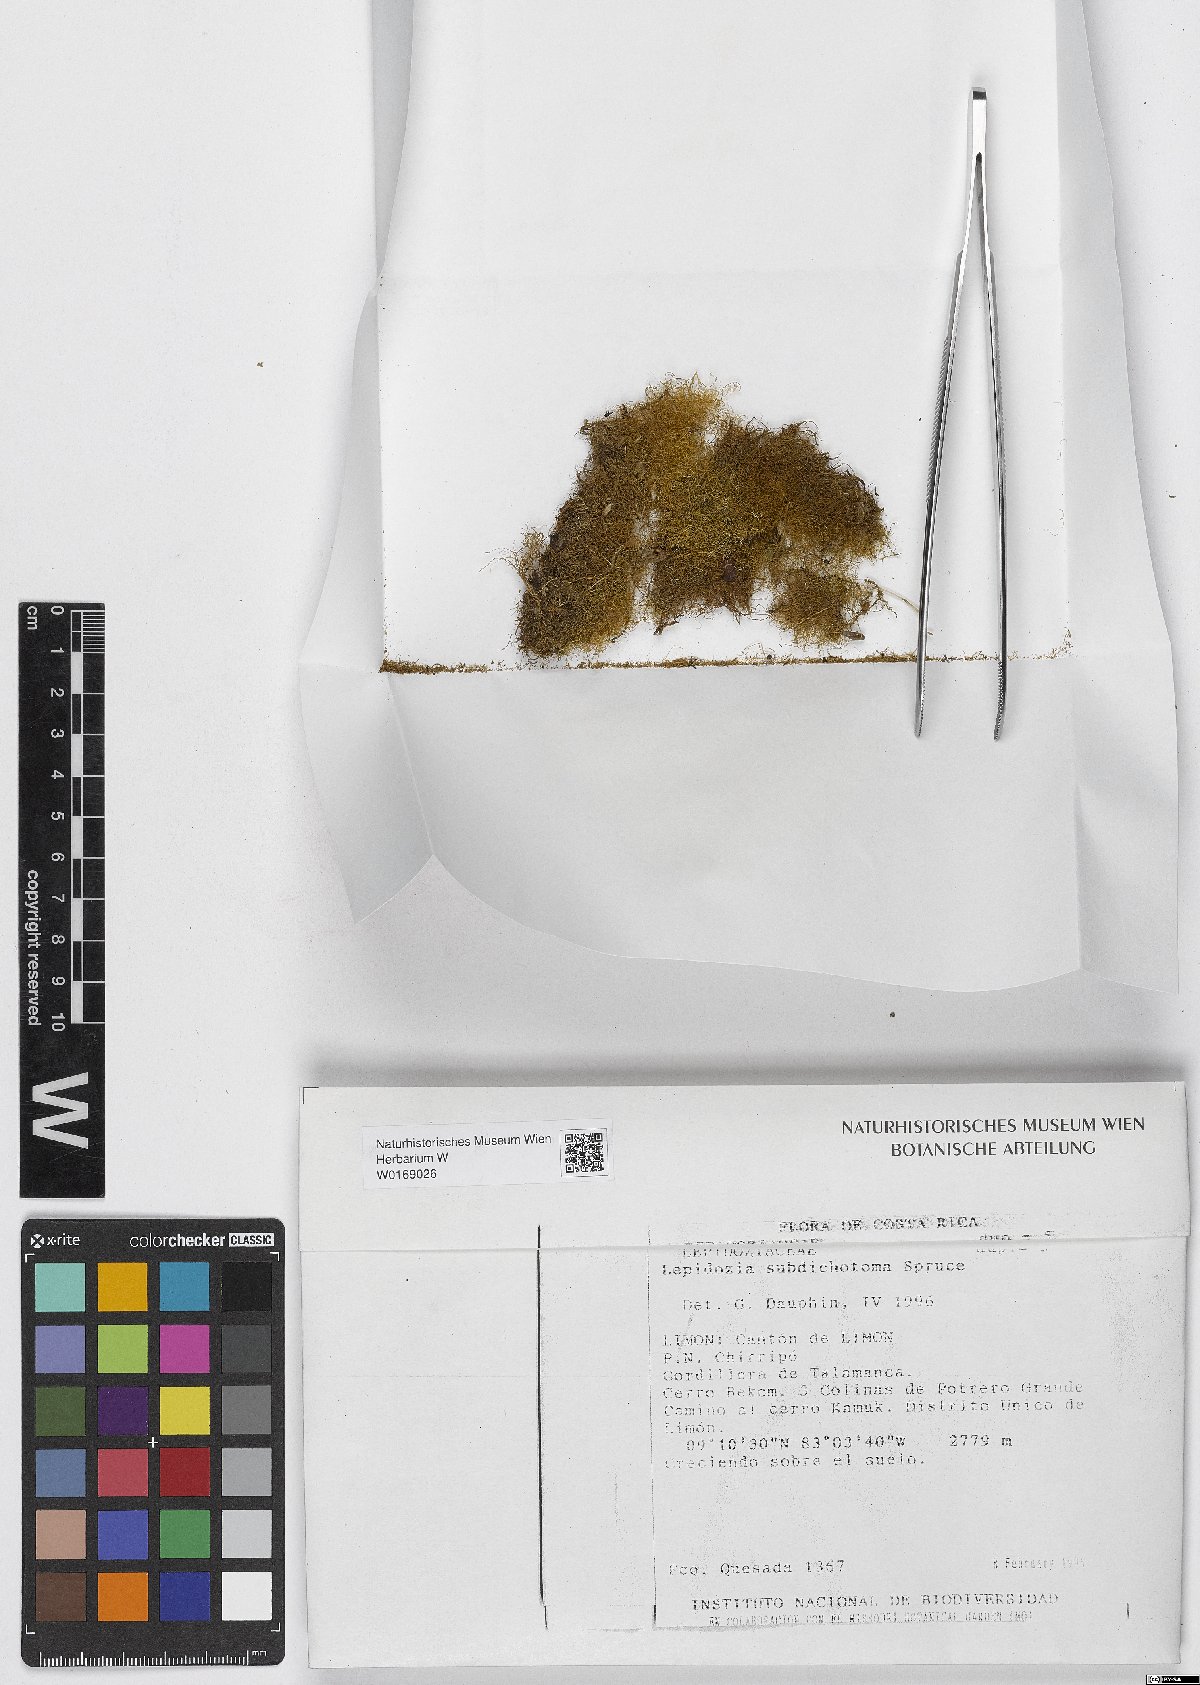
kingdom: Plantae
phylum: Marchantiophyta
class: Jungermanniopsida
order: Jungermanniales
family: Lepidoziaceae
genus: Lepidozia
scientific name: Lepidozia
